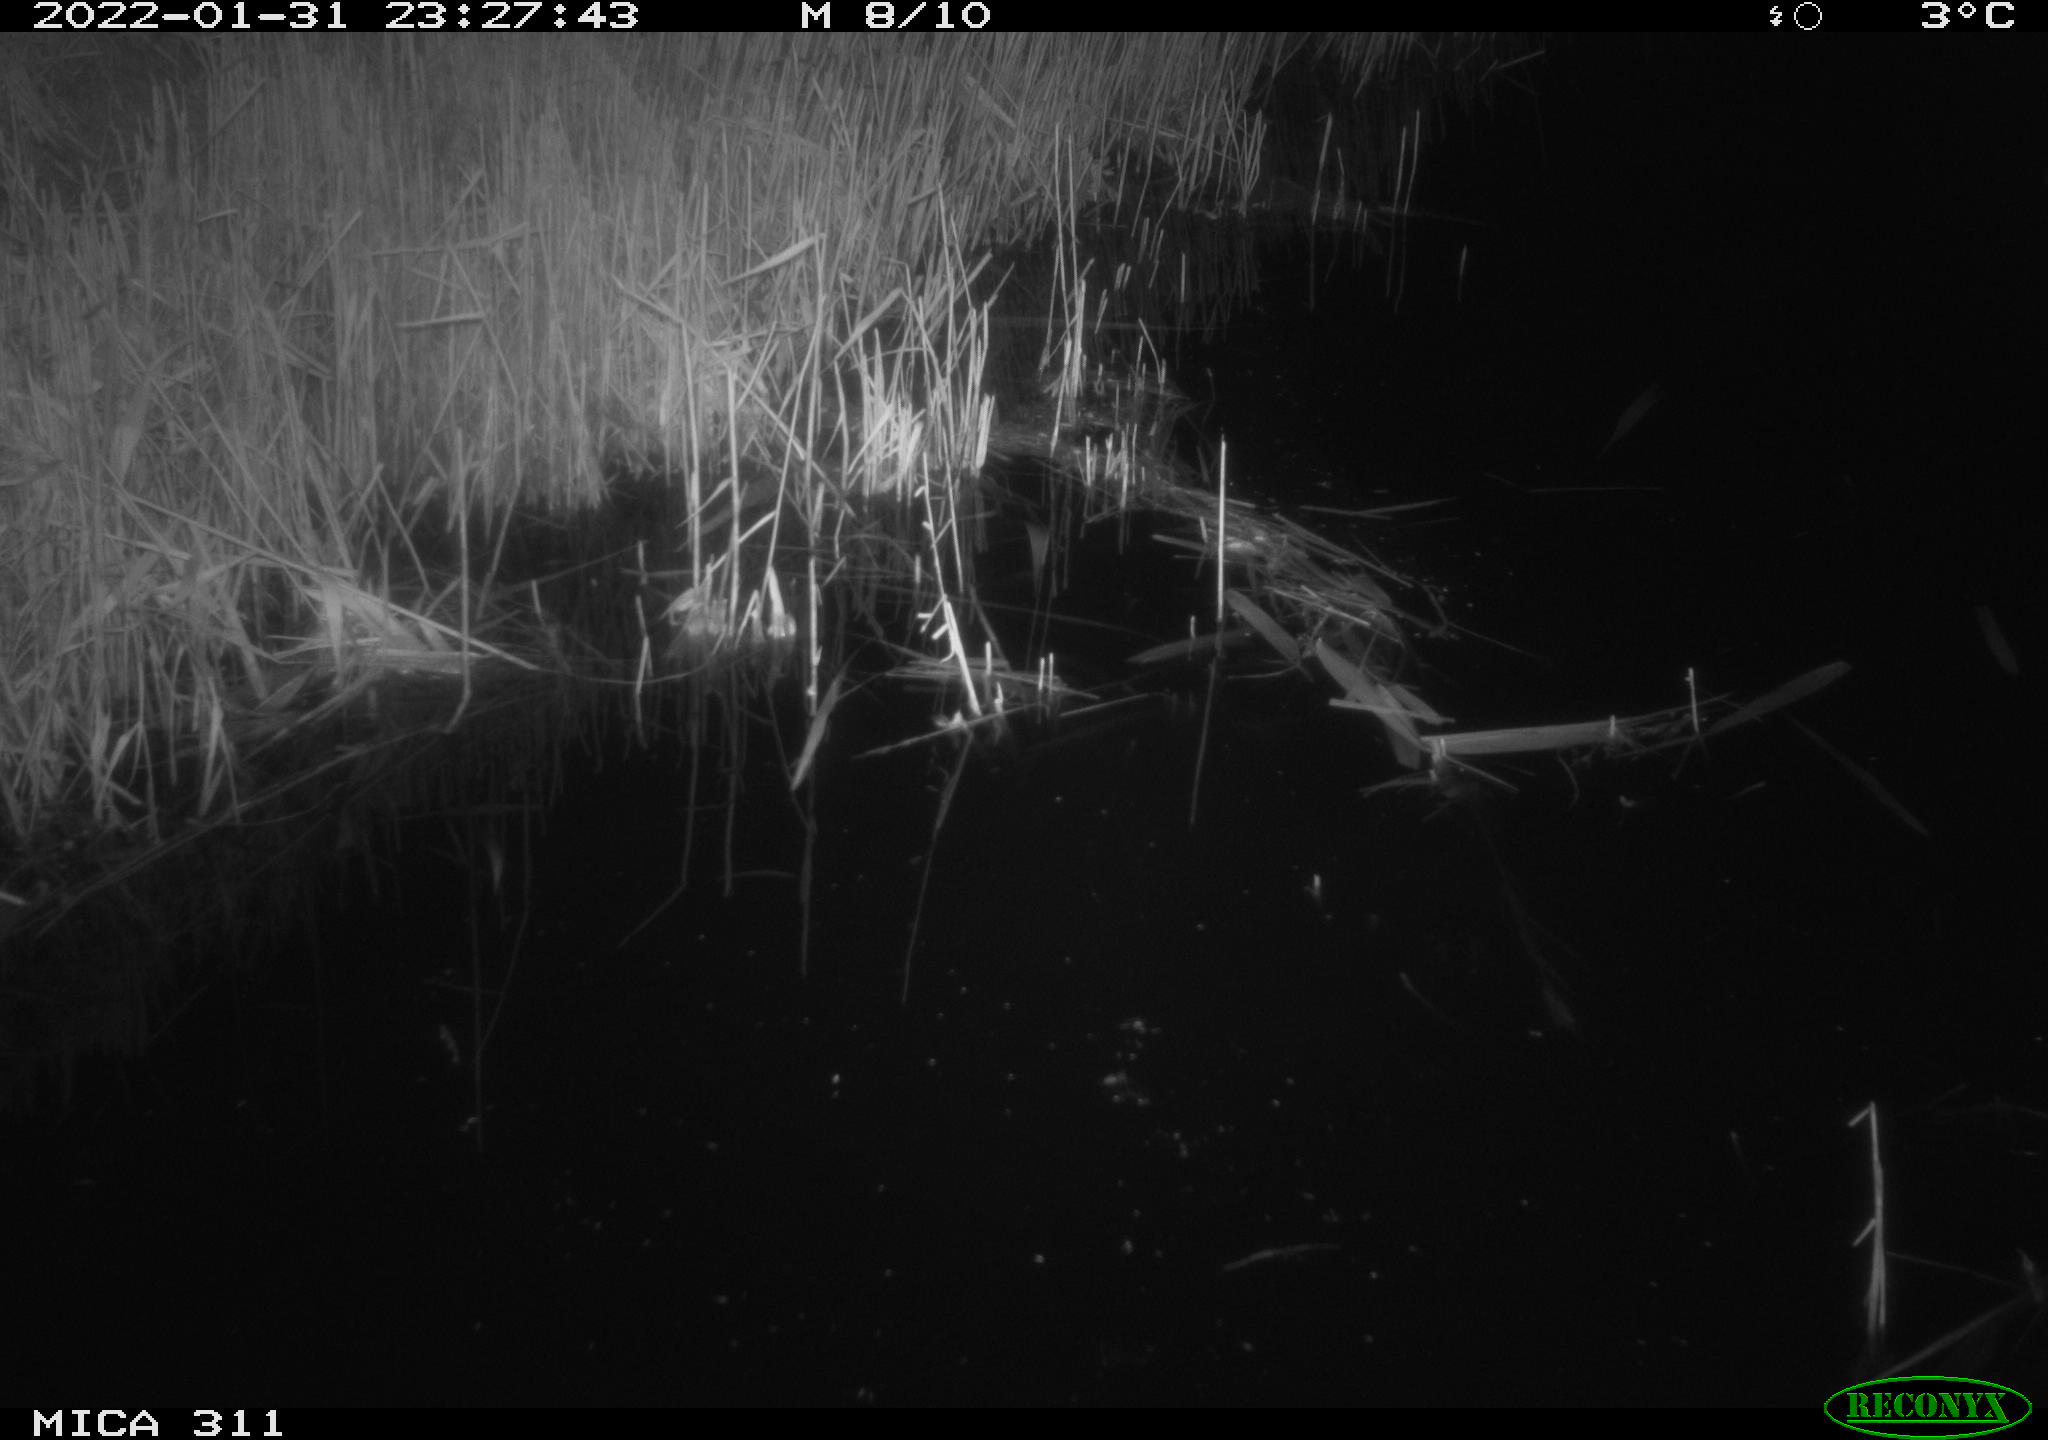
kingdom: Animalia
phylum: Chordata
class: Mammalia
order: Rodentia
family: Muridae
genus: Rattus
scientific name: Rattus norvegicus
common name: Brown rat
